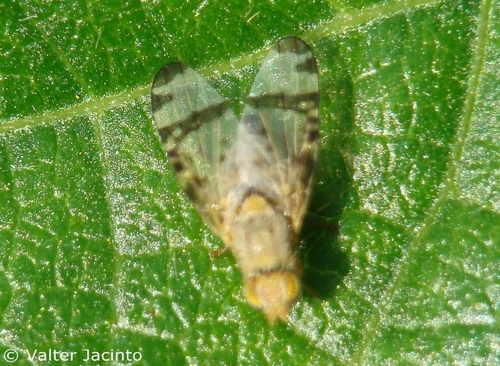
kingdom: Animalia
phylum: Arthropoda
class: Insecta
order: Diptera
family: Tephritidae
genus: Sphenella
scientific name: Sphenella marginata
